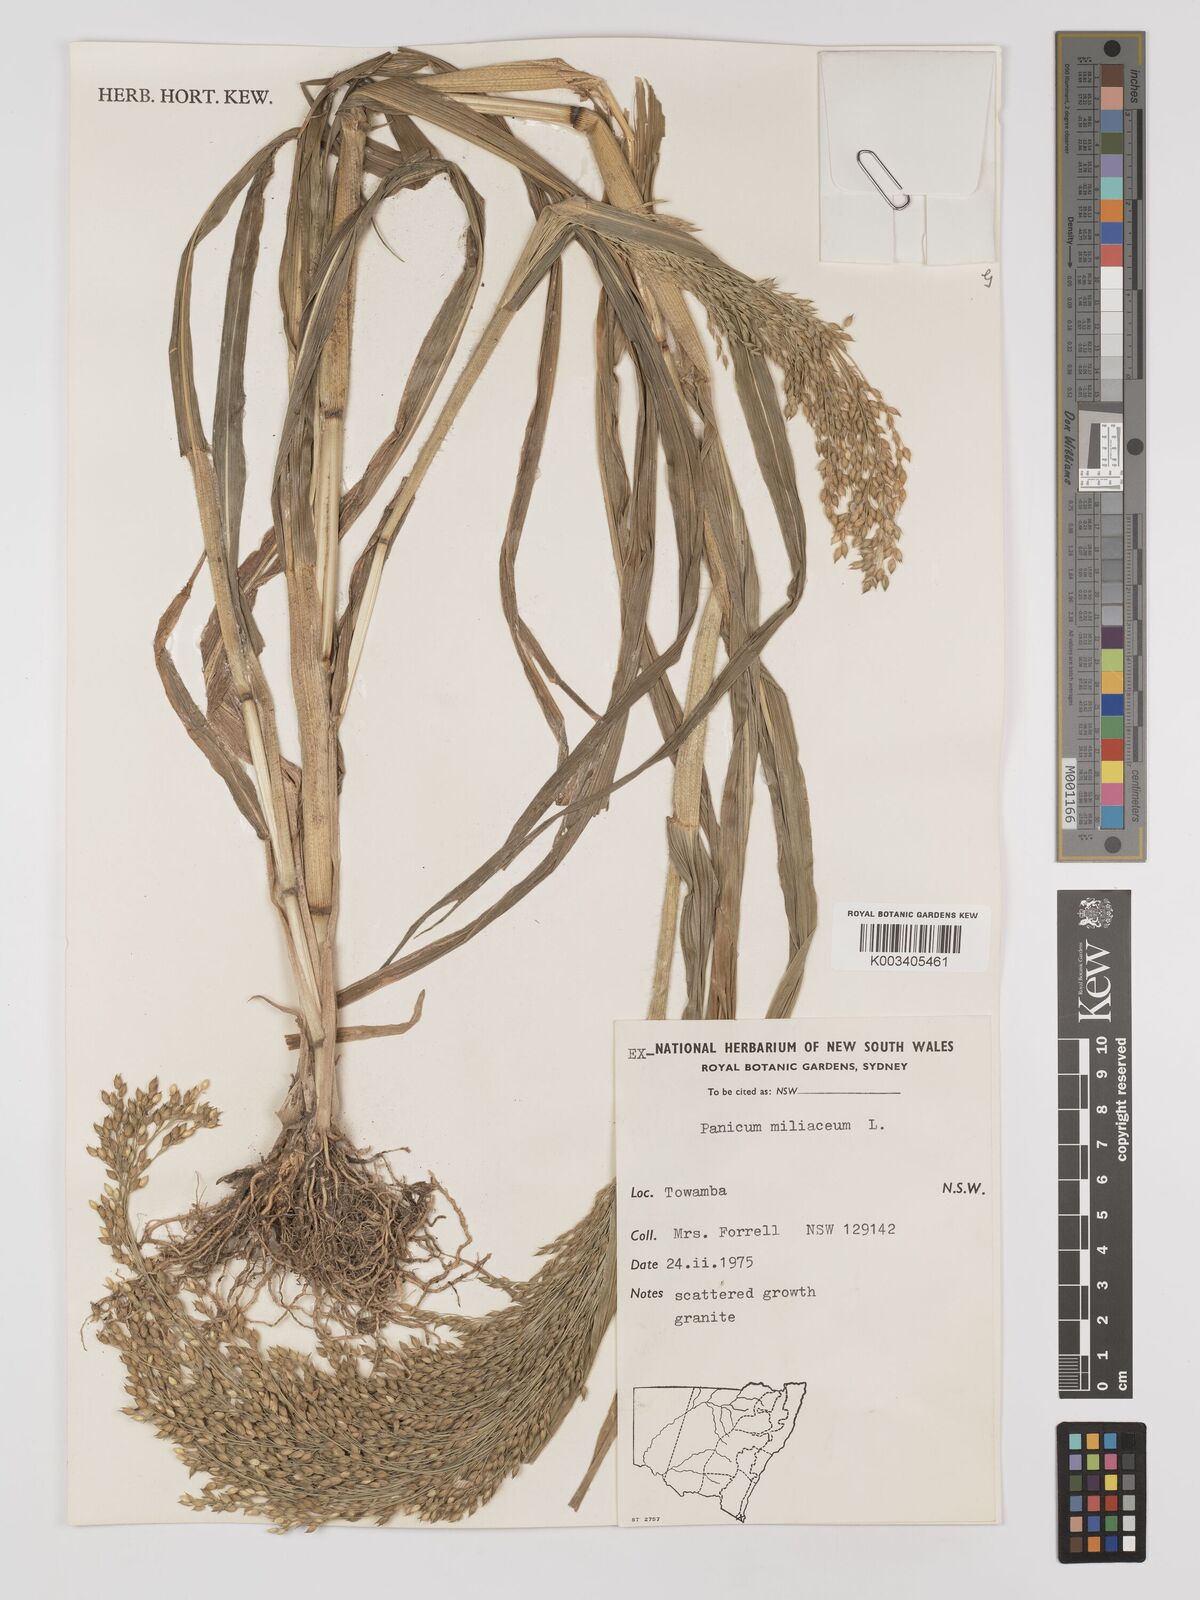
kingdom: Plantae
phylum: Tracheophyta
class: Liliopsida
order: Poales
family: Poaceae
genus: Panicum
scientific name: Panicum miliaceum
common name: Common millet
